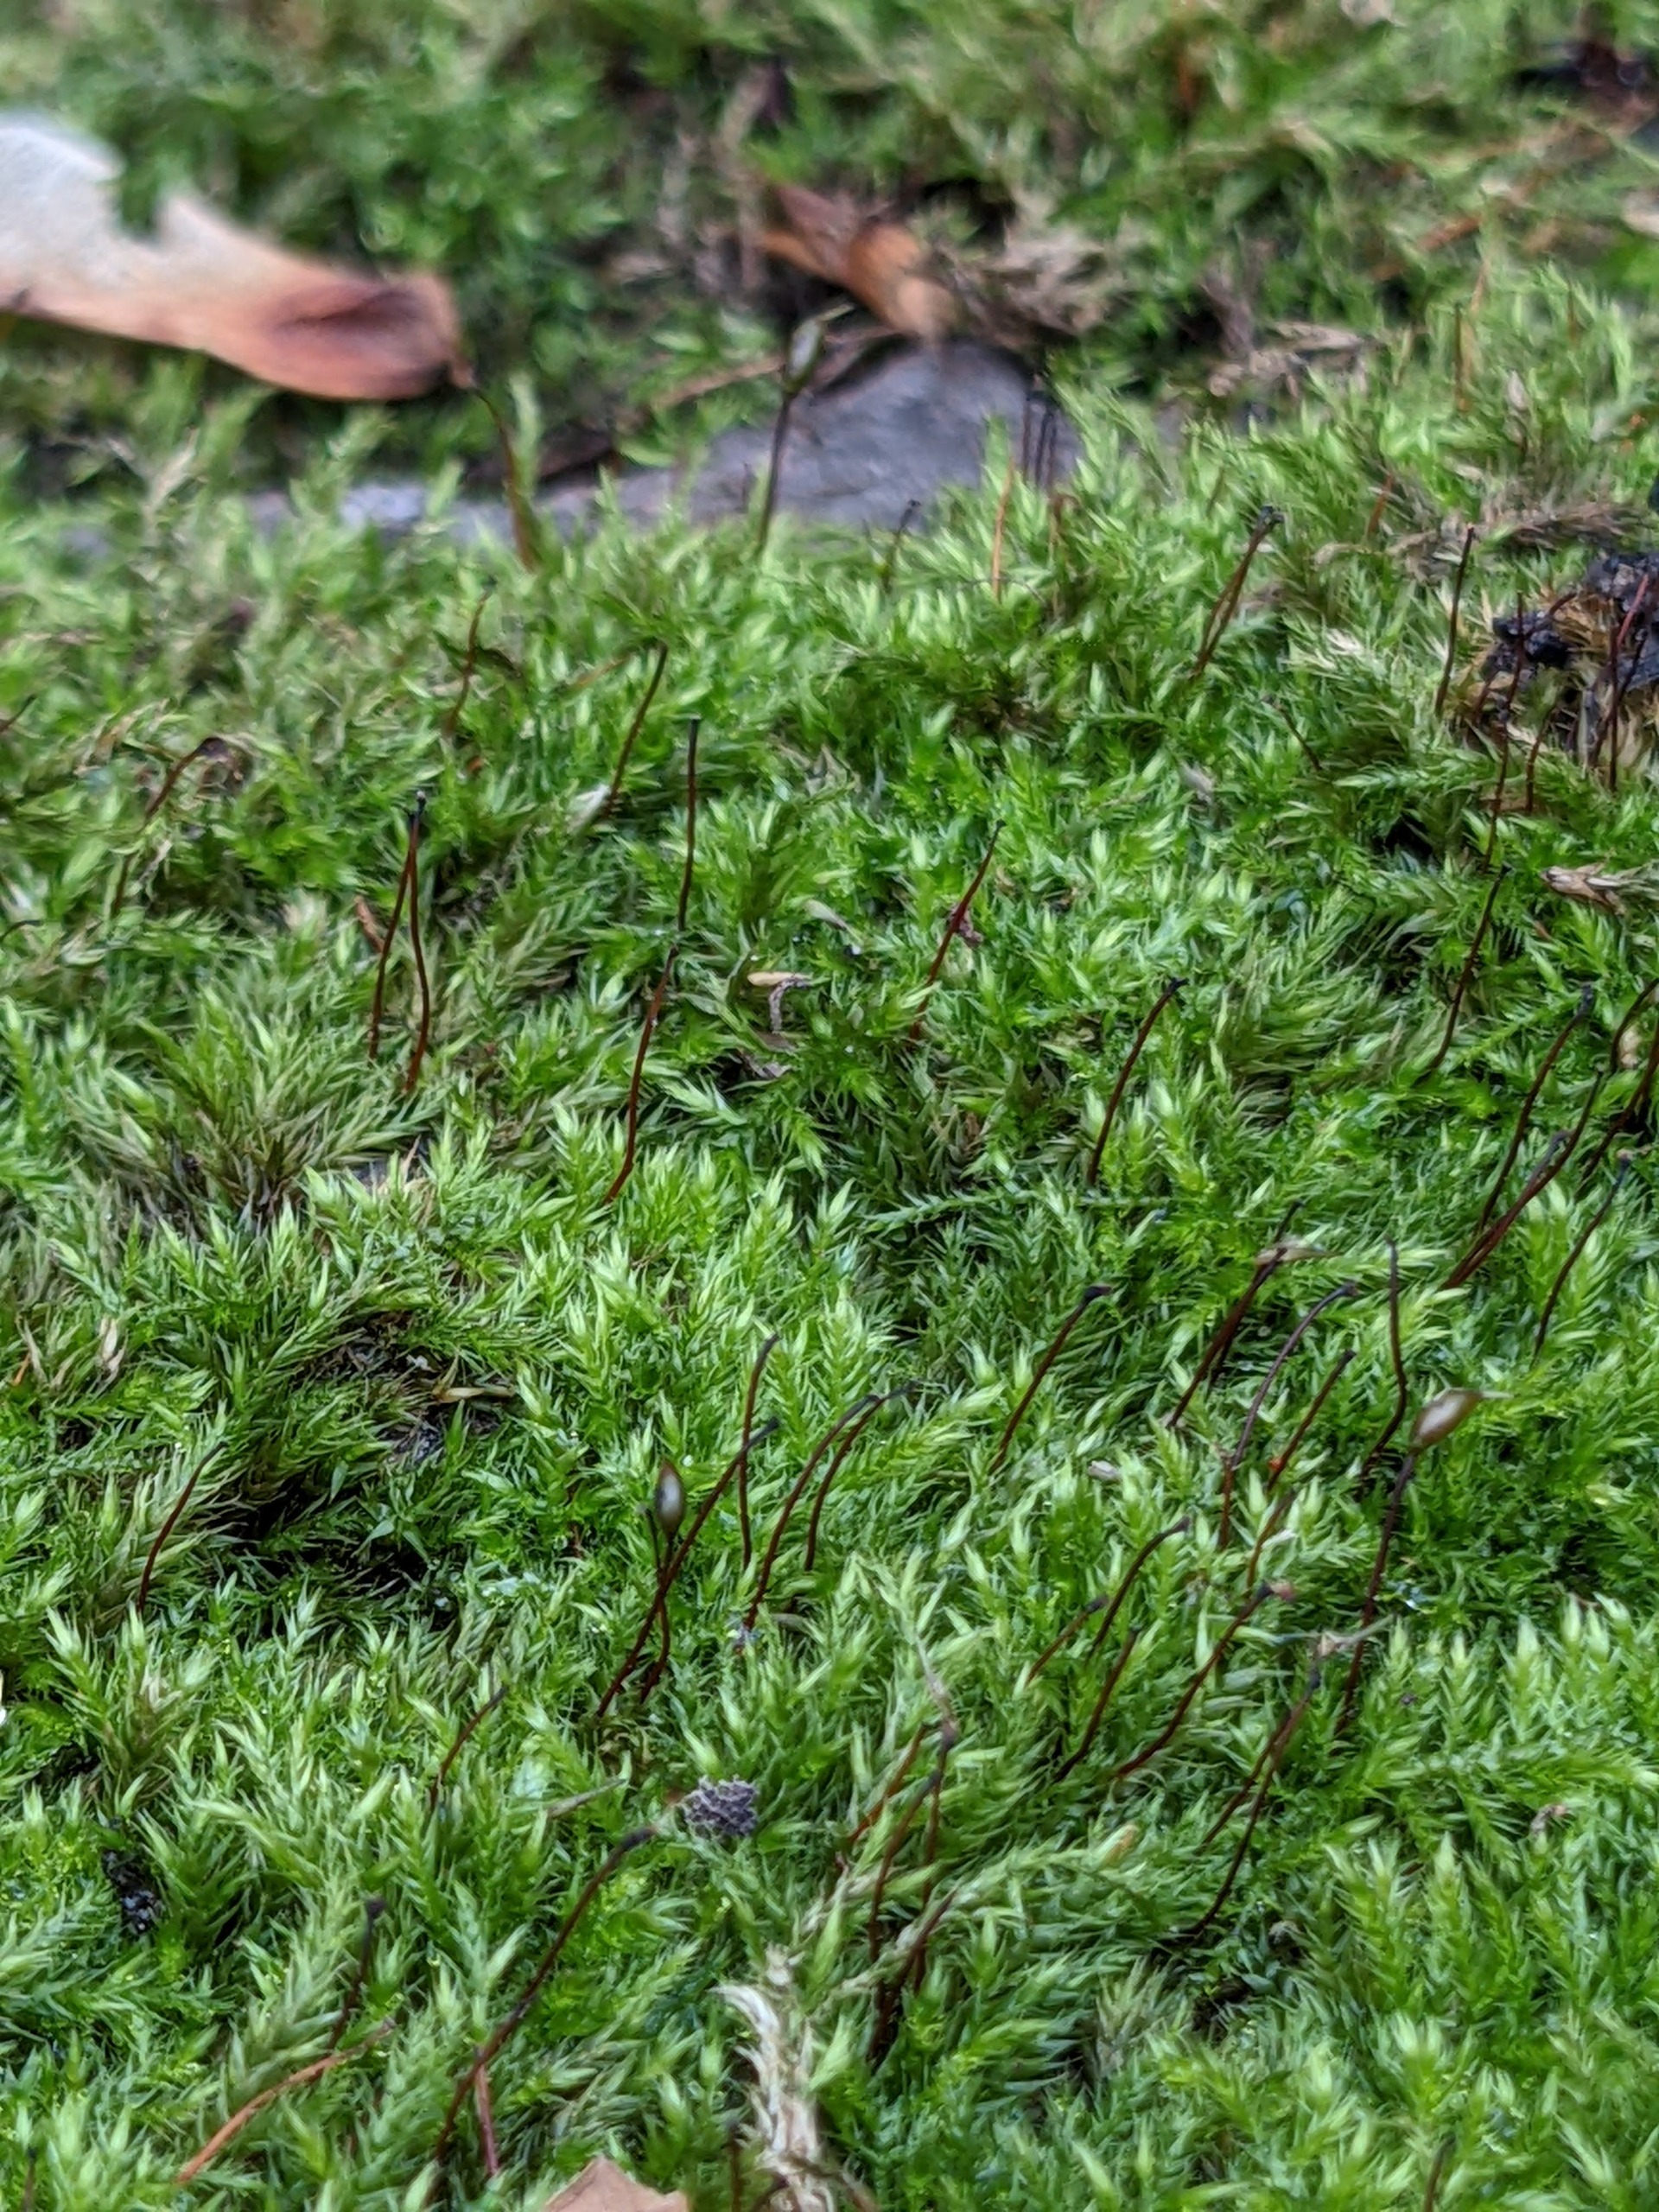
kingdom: Plantae
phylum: Bryophyta
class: Bryopsida
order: Hypnales
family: Brachytheciaceae
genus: Sciuro-hypnum
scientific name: Sciuro-hypnum populeum
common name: Park-kortkapsel
